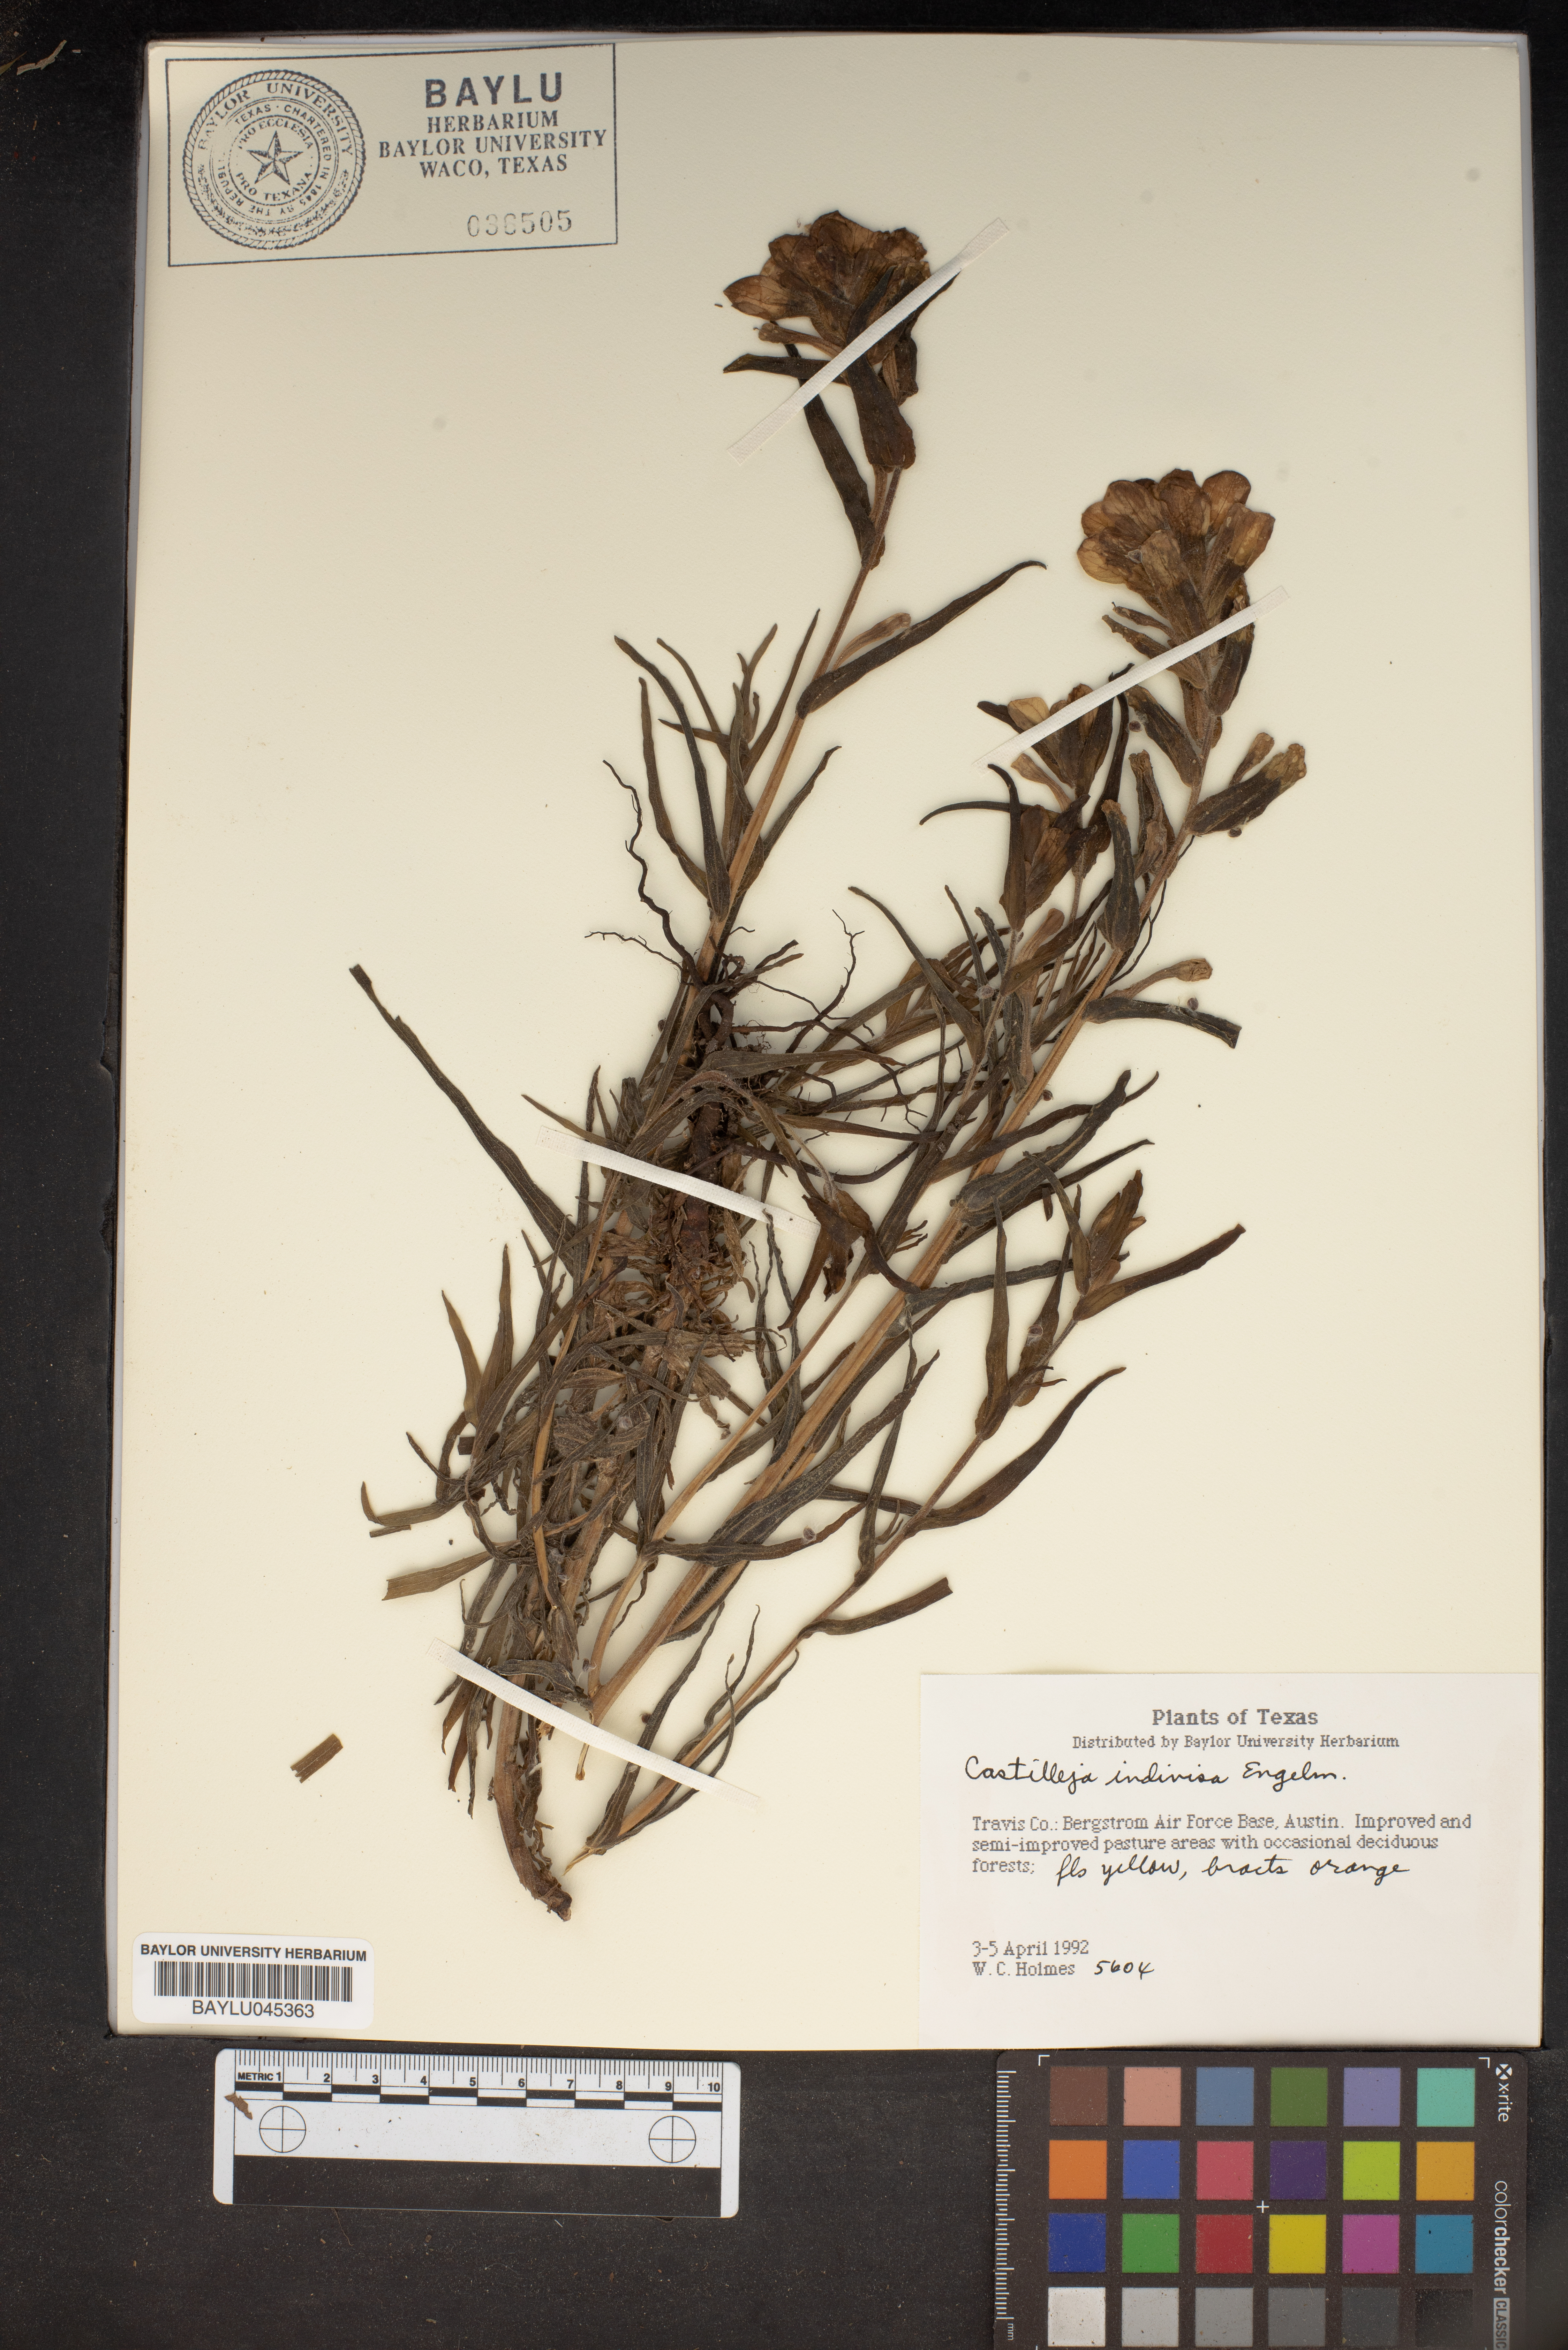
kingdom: Plantae
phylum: Tracheophyta
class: Magnoliopsida
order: Lamiales
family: Orobanchaceae
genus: Castilleja
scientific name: Castilleja indivisa
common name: Texas paintbrush
